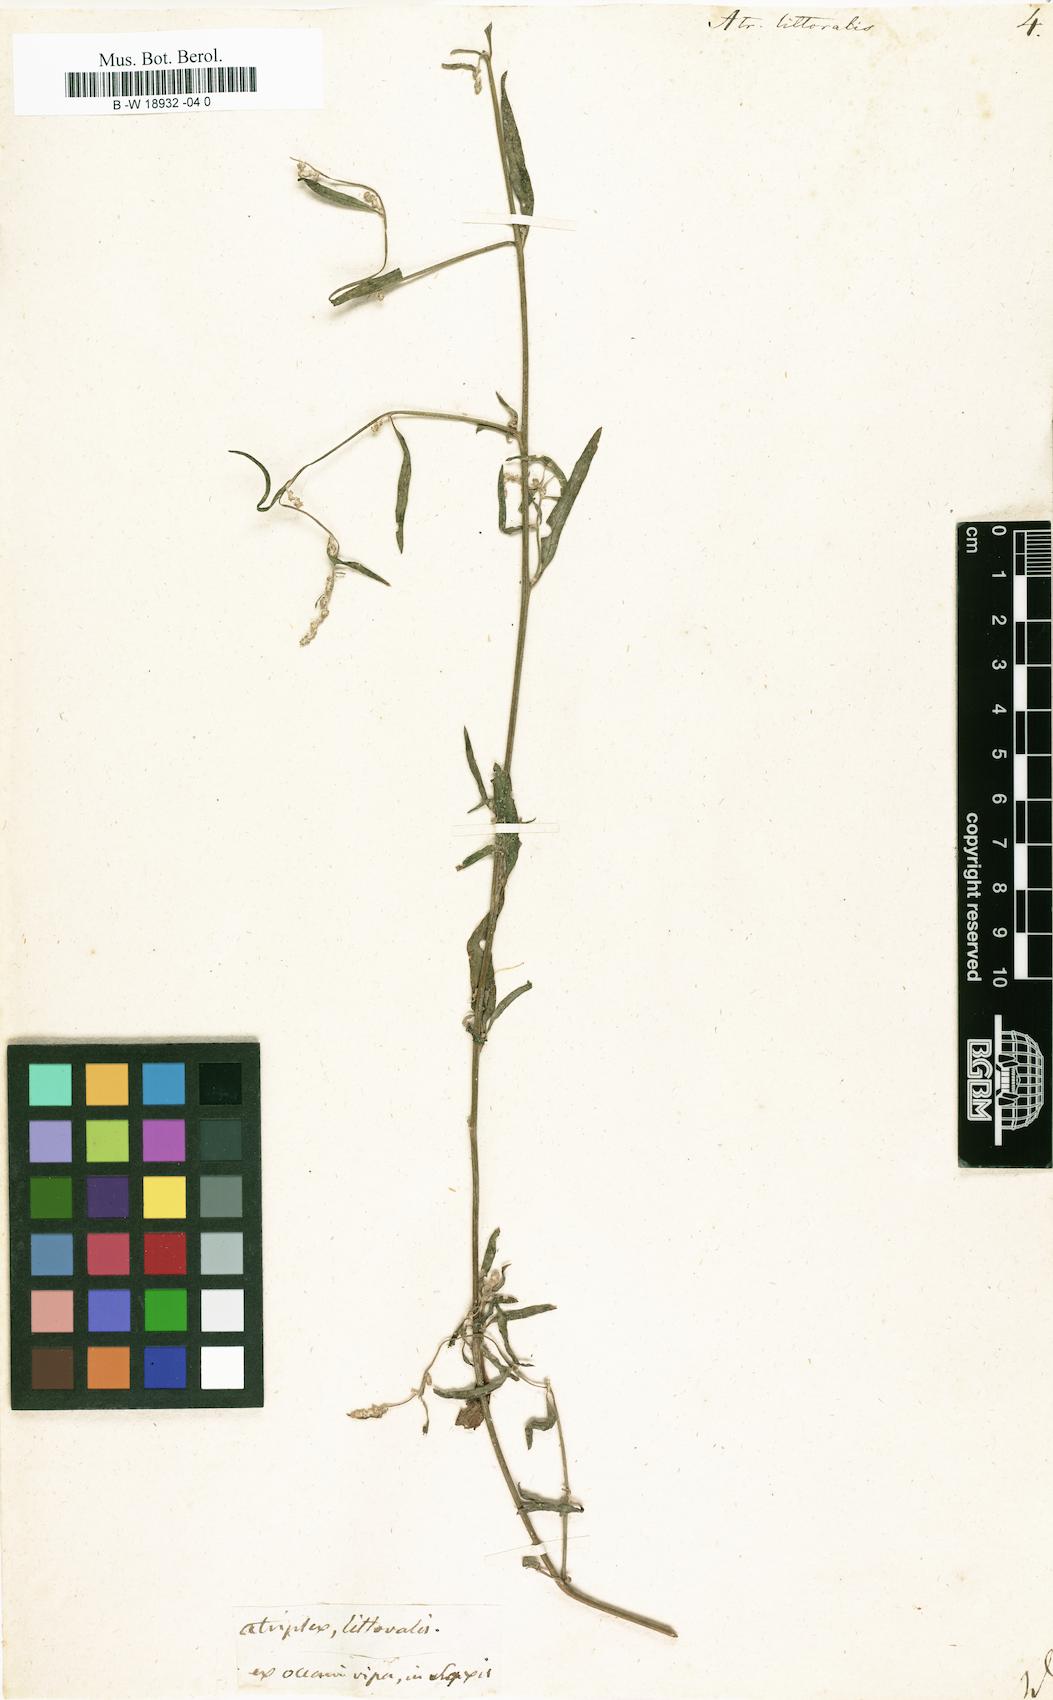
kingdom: Plantae
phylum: Tracheophyta
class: Magnoliopsida
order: Caryophyllales
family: Amaranthaceae
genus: Atriplex
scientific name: Atriplex littoralis
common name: Grass-leaved orache
